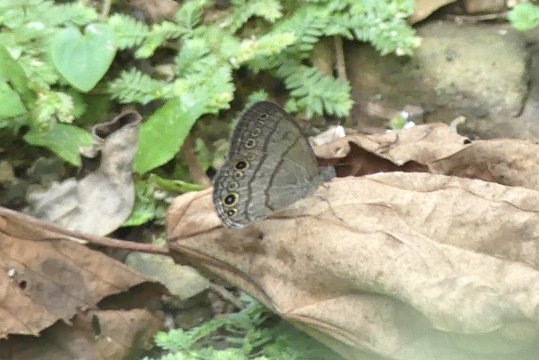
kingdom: Animalia
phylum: Arthropoda
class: Insecta
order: Lepidoptera
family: Nymphalidae
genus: Hermeuptychia
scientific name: Hermeuptychia hermes
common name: Hermes Satyr
